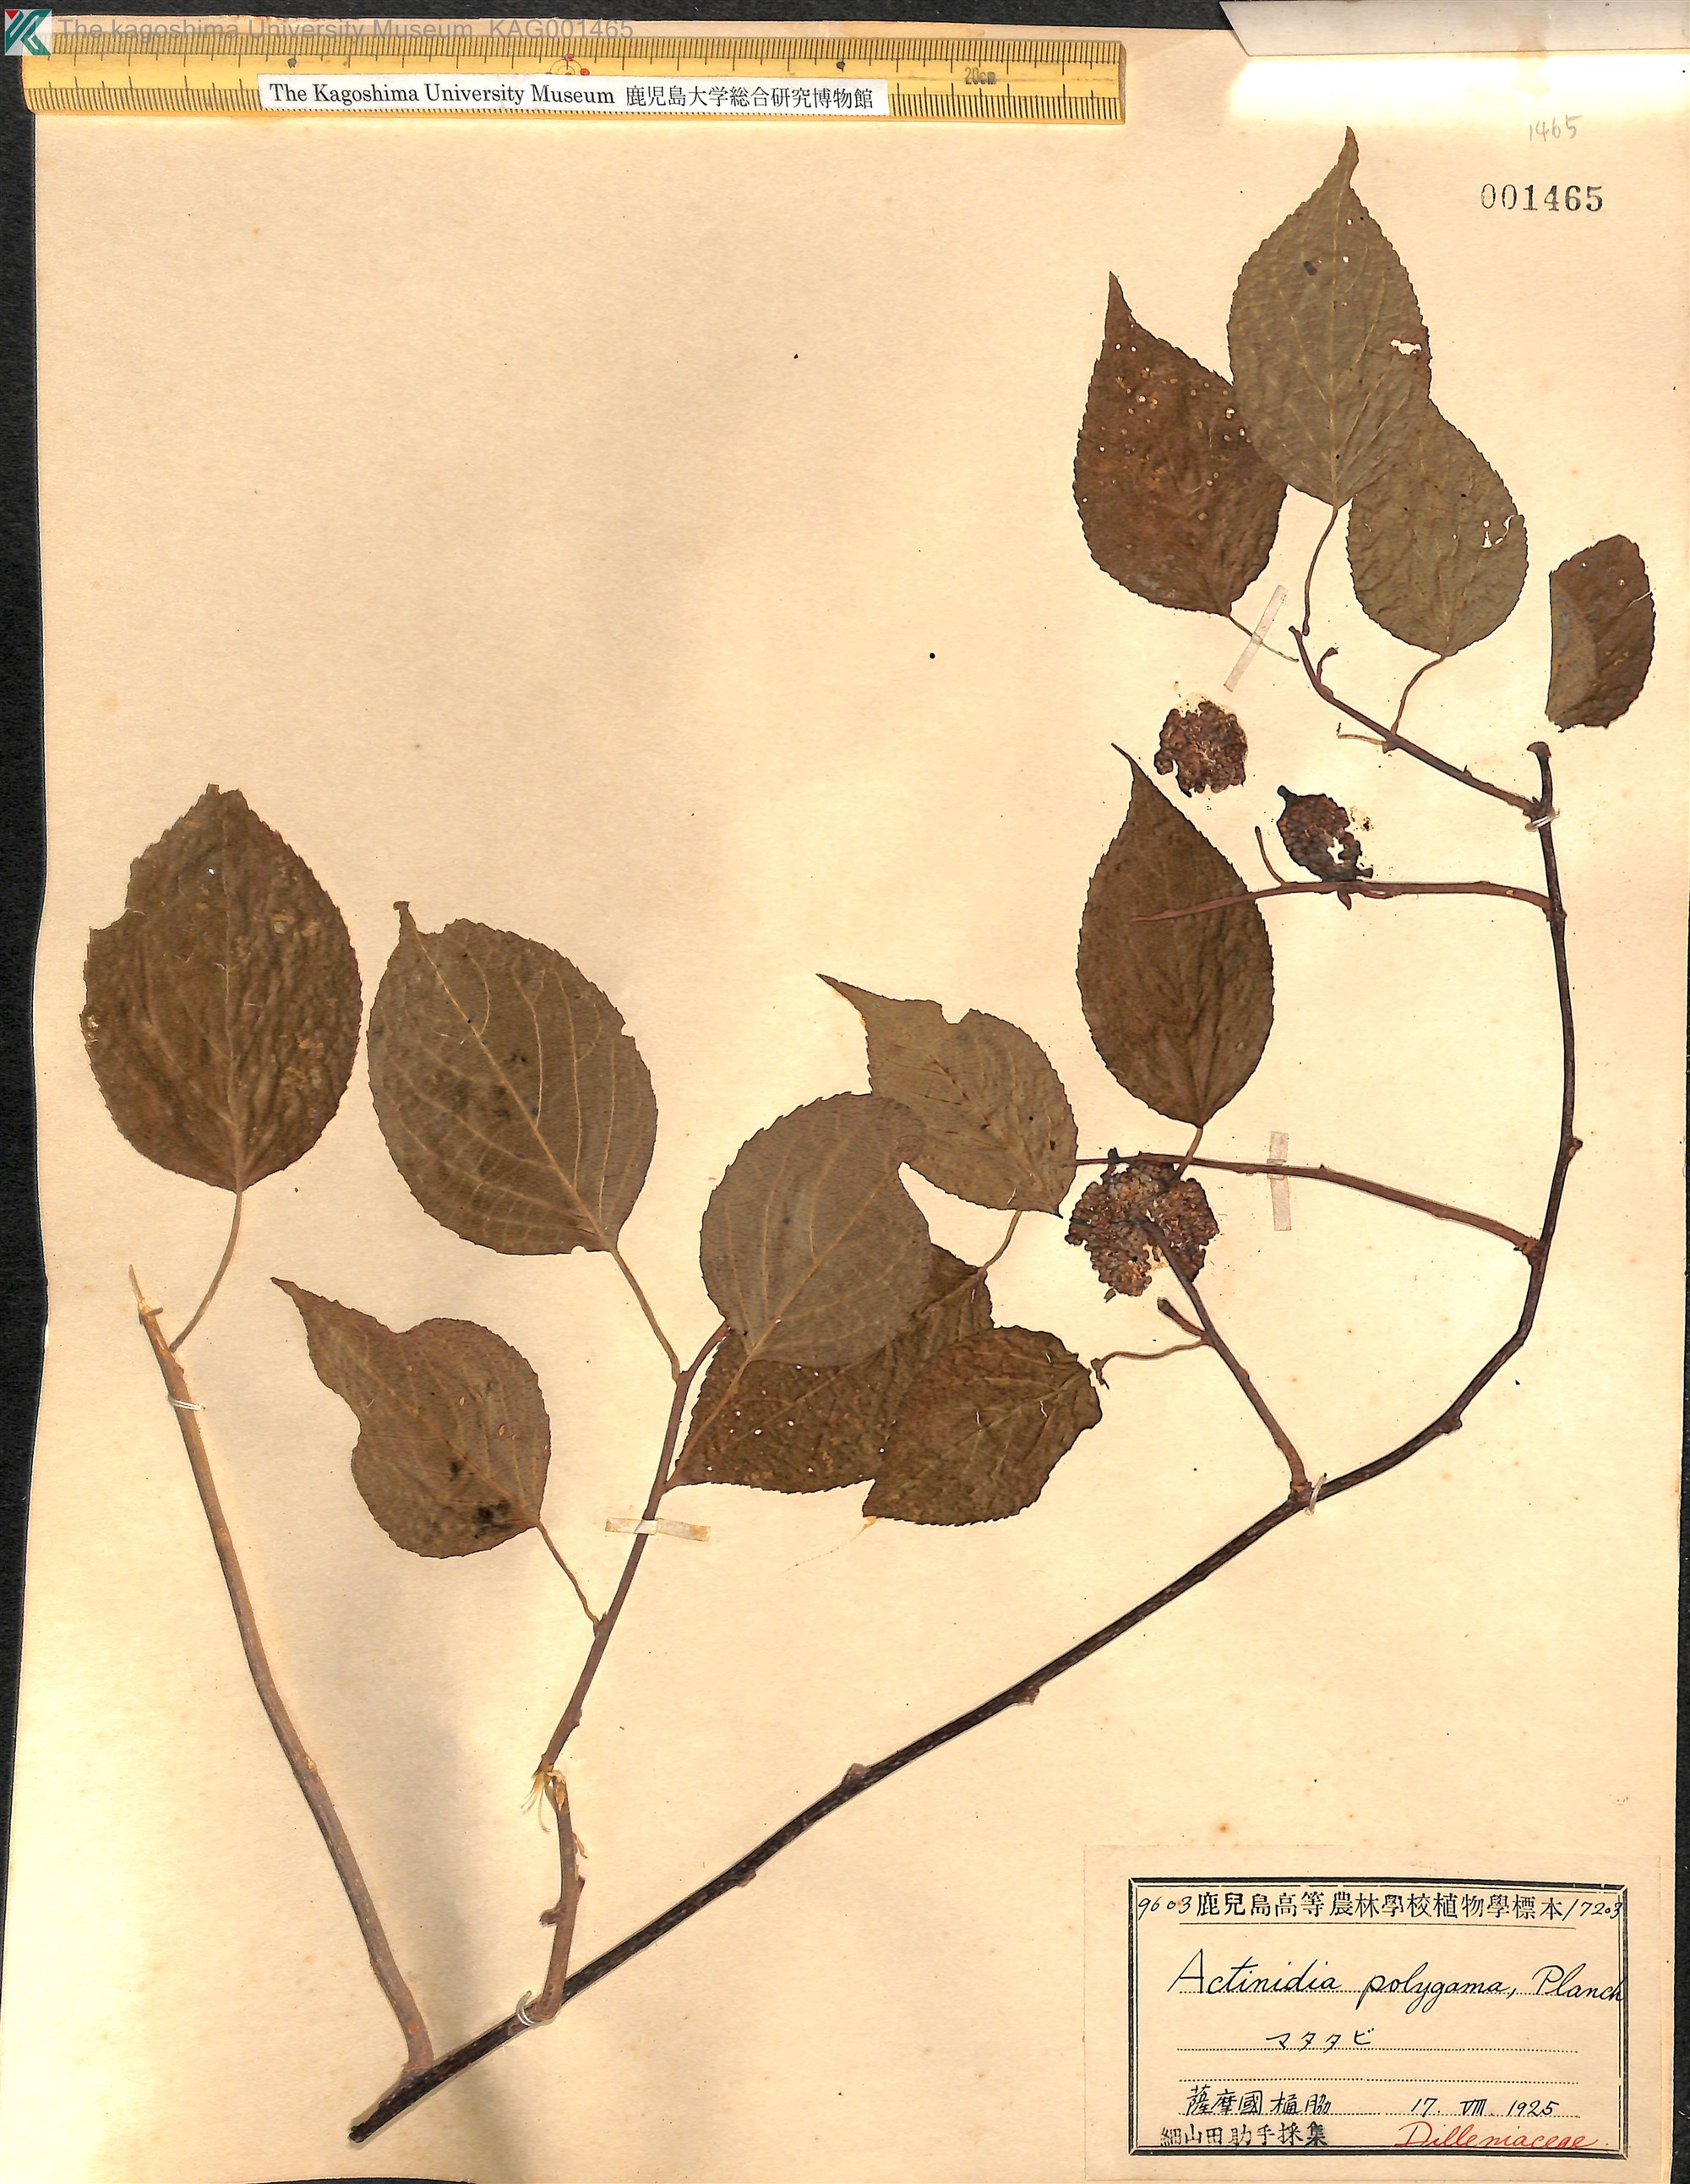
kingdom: Plantae
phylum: Tracheophyta
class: Magnoliopsida
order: Ericales
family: Actinidiaceae
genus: Actinidia
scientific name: Actinidia polygama
